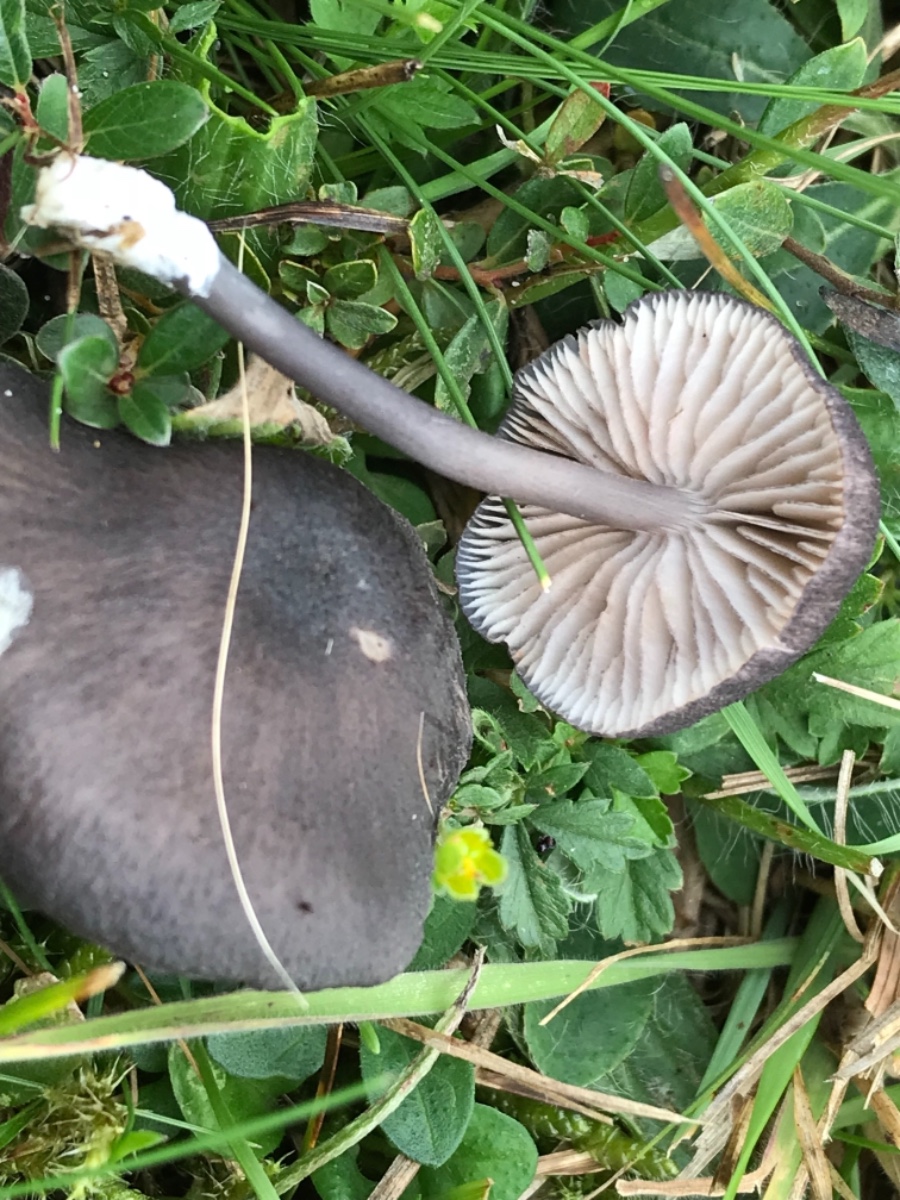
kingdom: Fungi
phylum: Basidiomycota
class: Agaricomycetes
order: Agaricales
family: Entolomataceae
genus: Entoloma
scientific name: Entoloma
